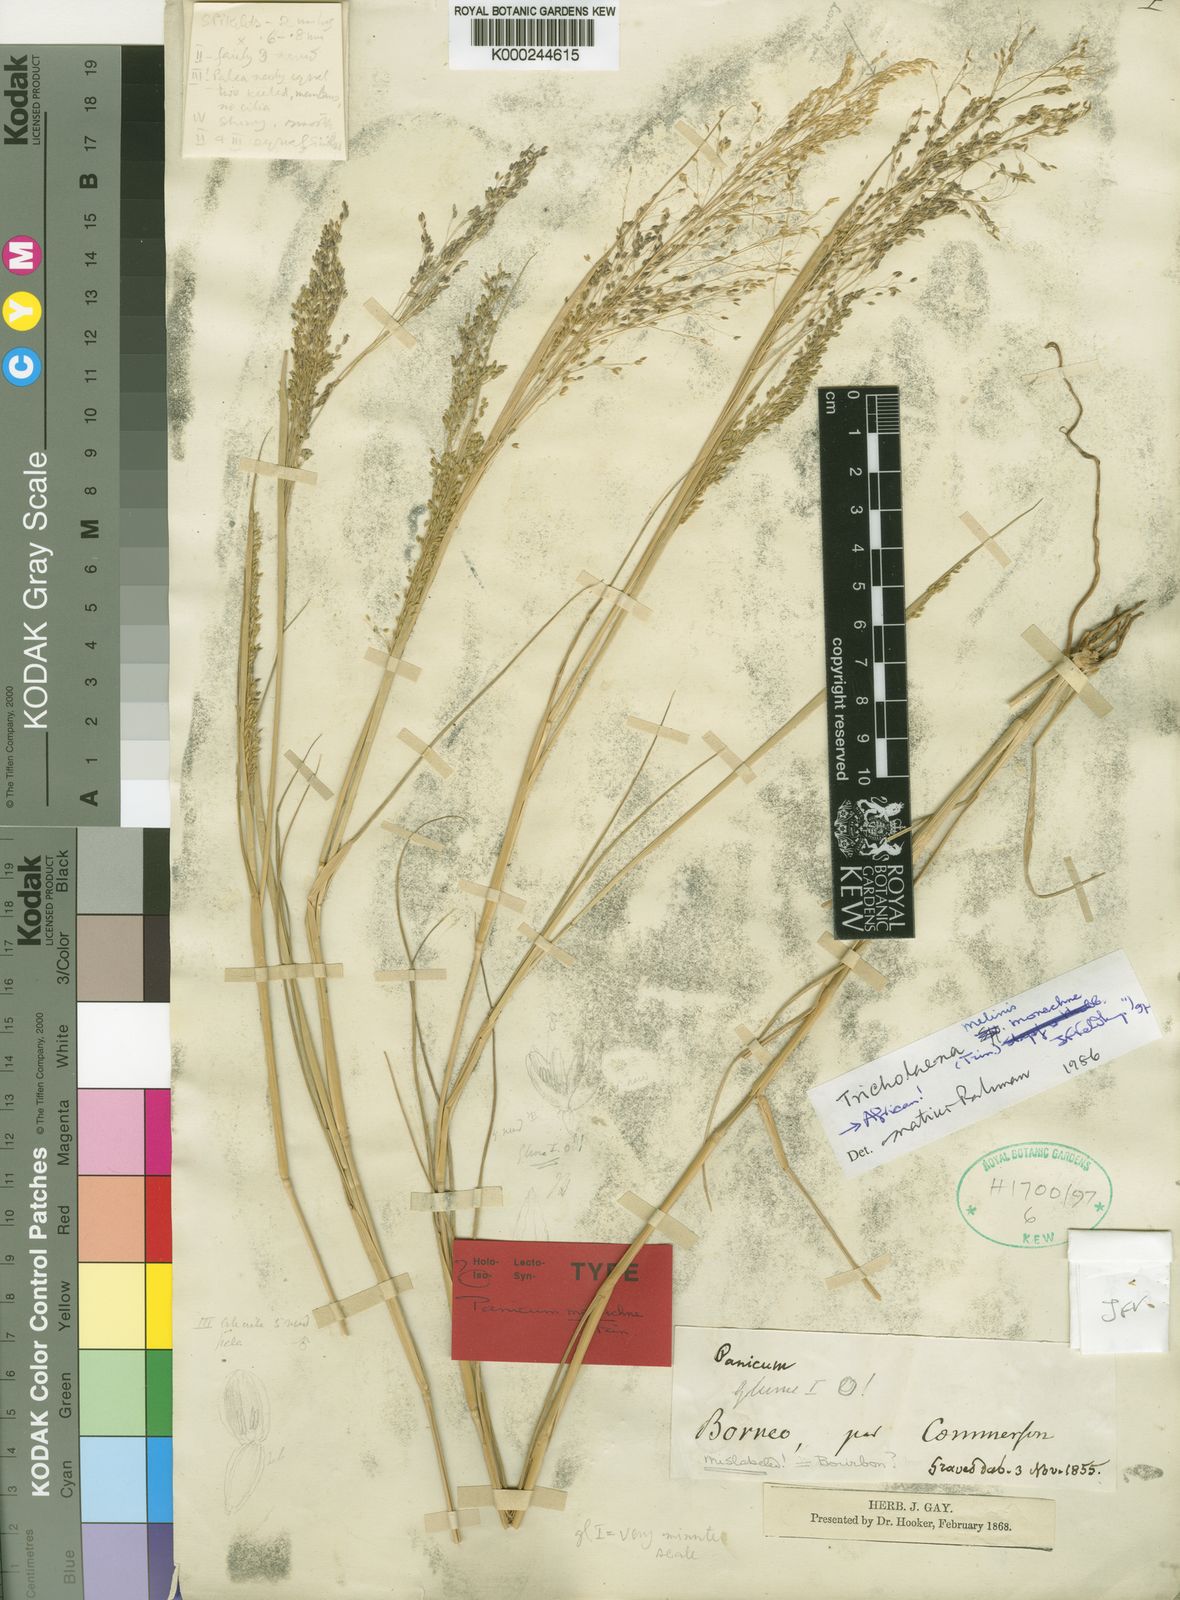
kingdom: Plantae
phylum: Tracheophyta
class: Liliopsida
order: Poales
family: Poaceae
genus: Tricholaena
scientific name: Tricholaena monachne
